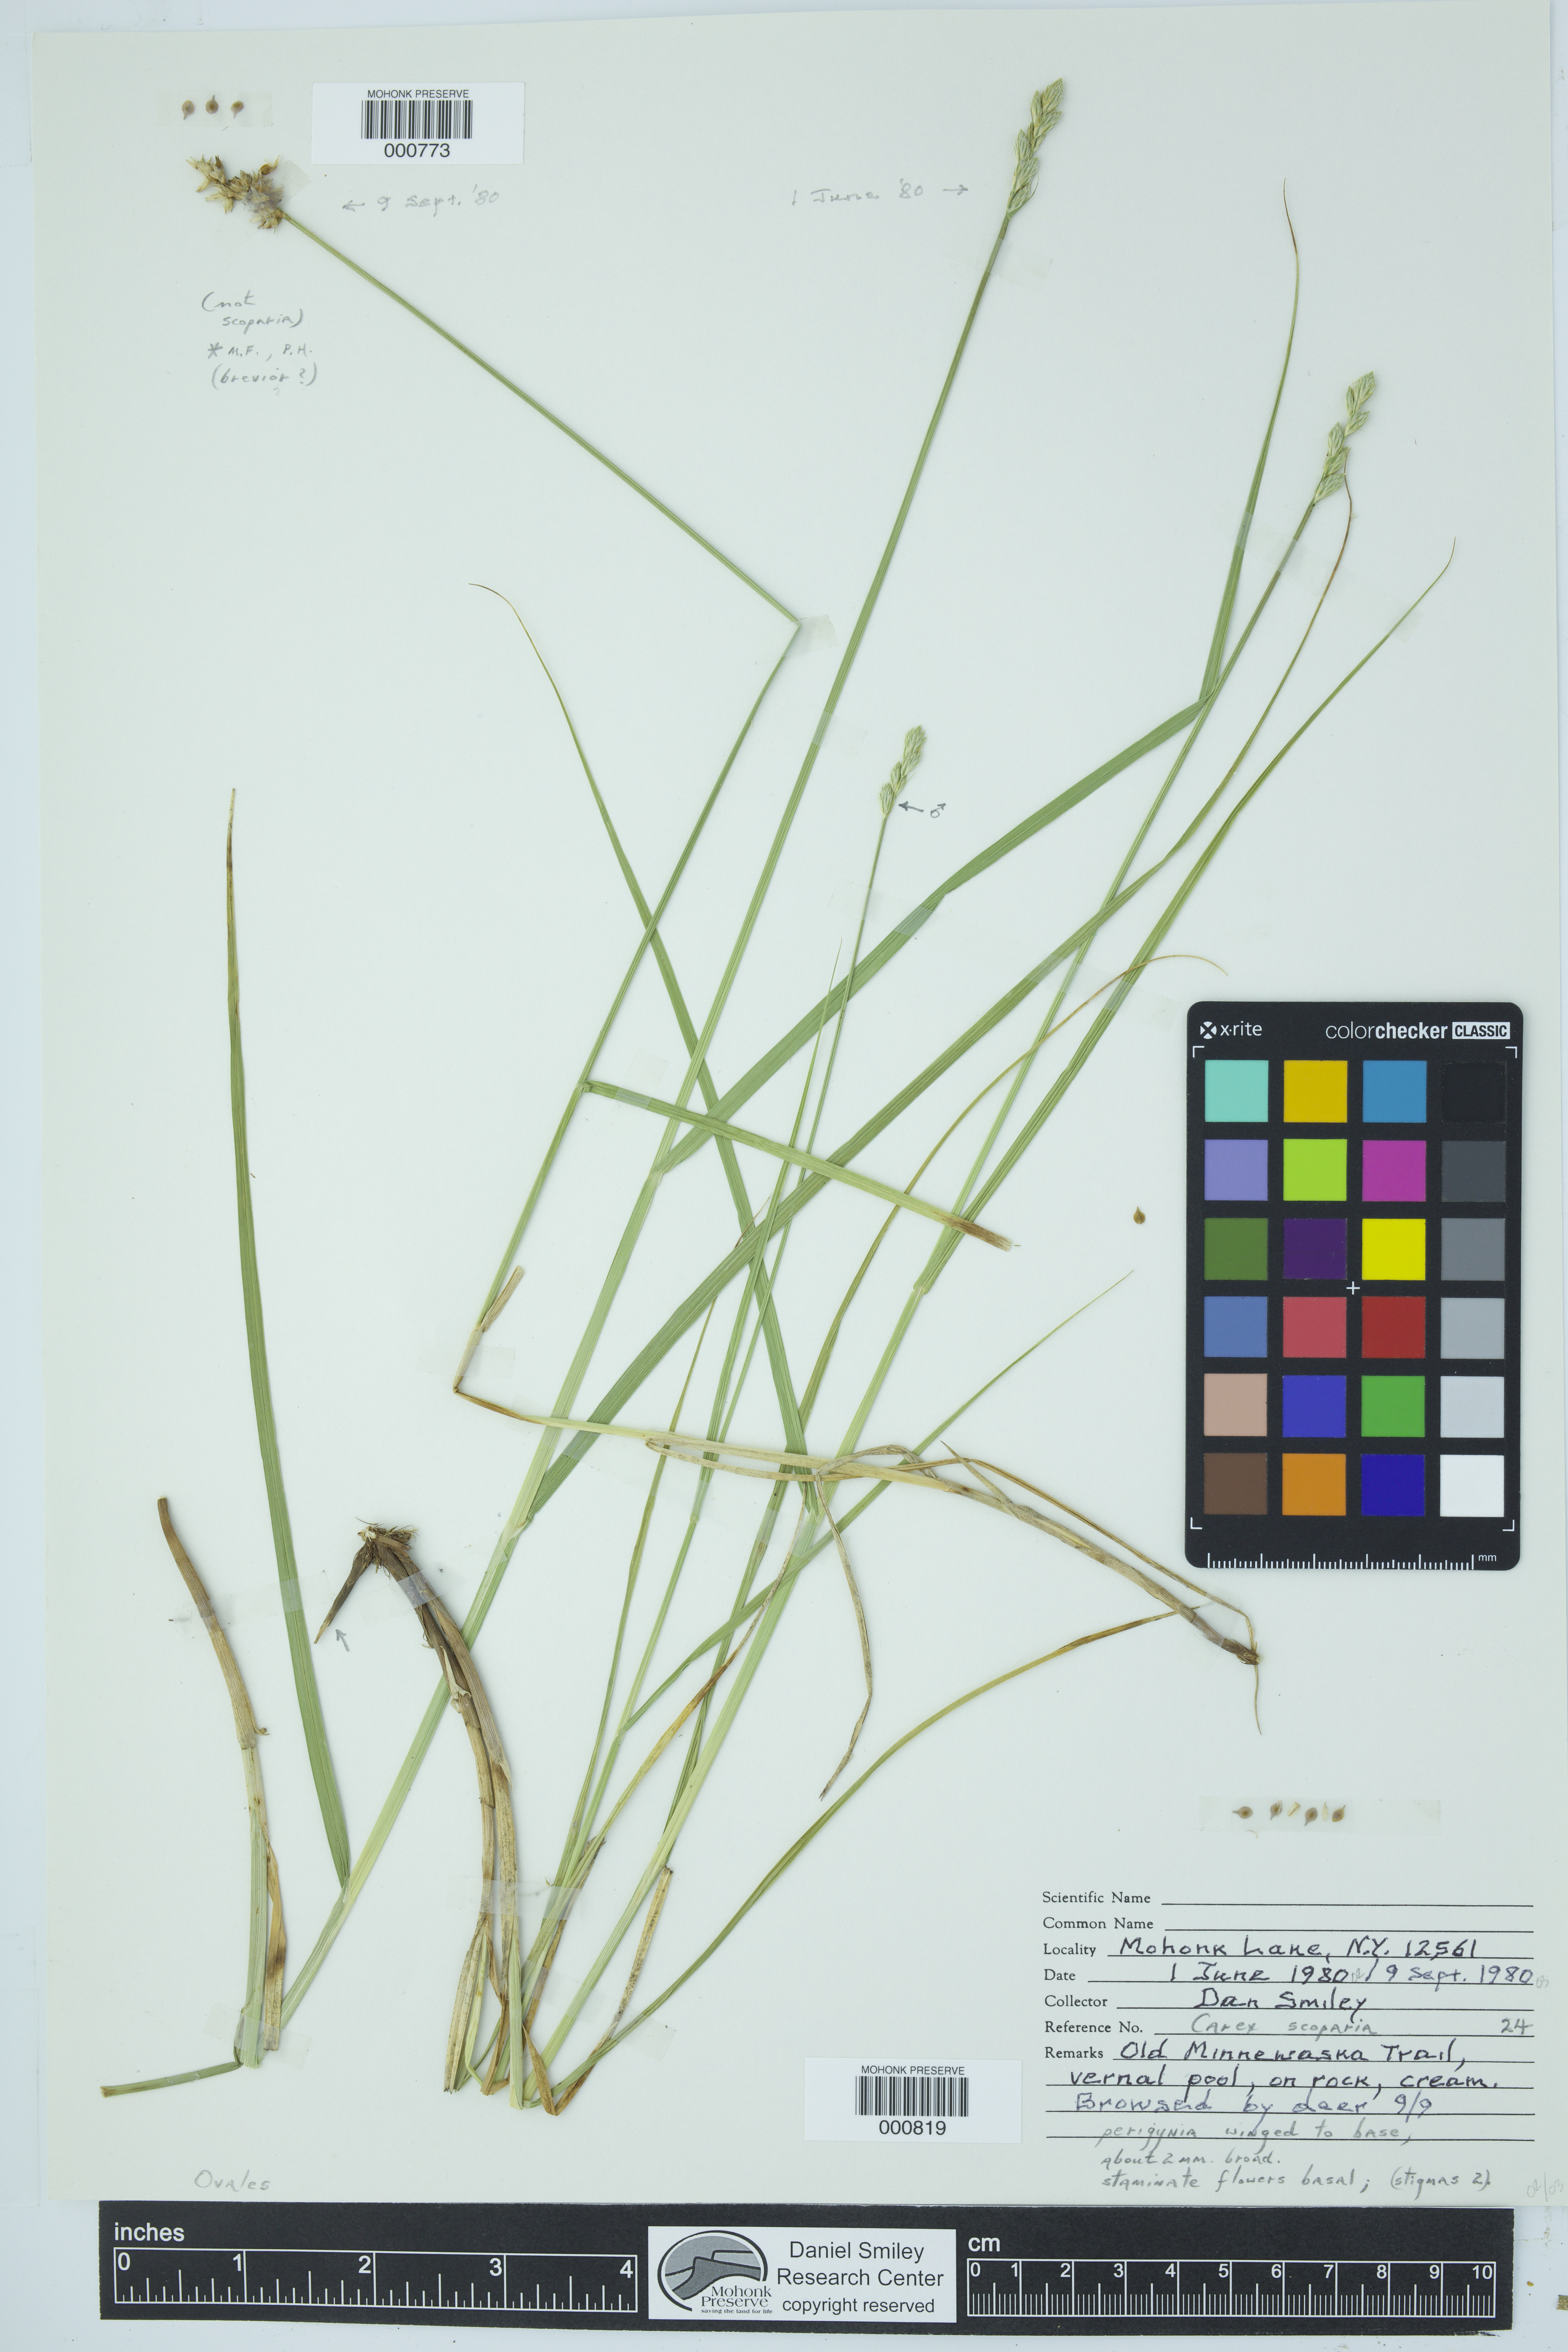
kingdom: Plantae
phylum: Tracheophyta
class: Liliopsida
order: Poales
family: Cyperaceae
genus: Carex
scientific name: Carex brevior
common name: Brevior sedge
